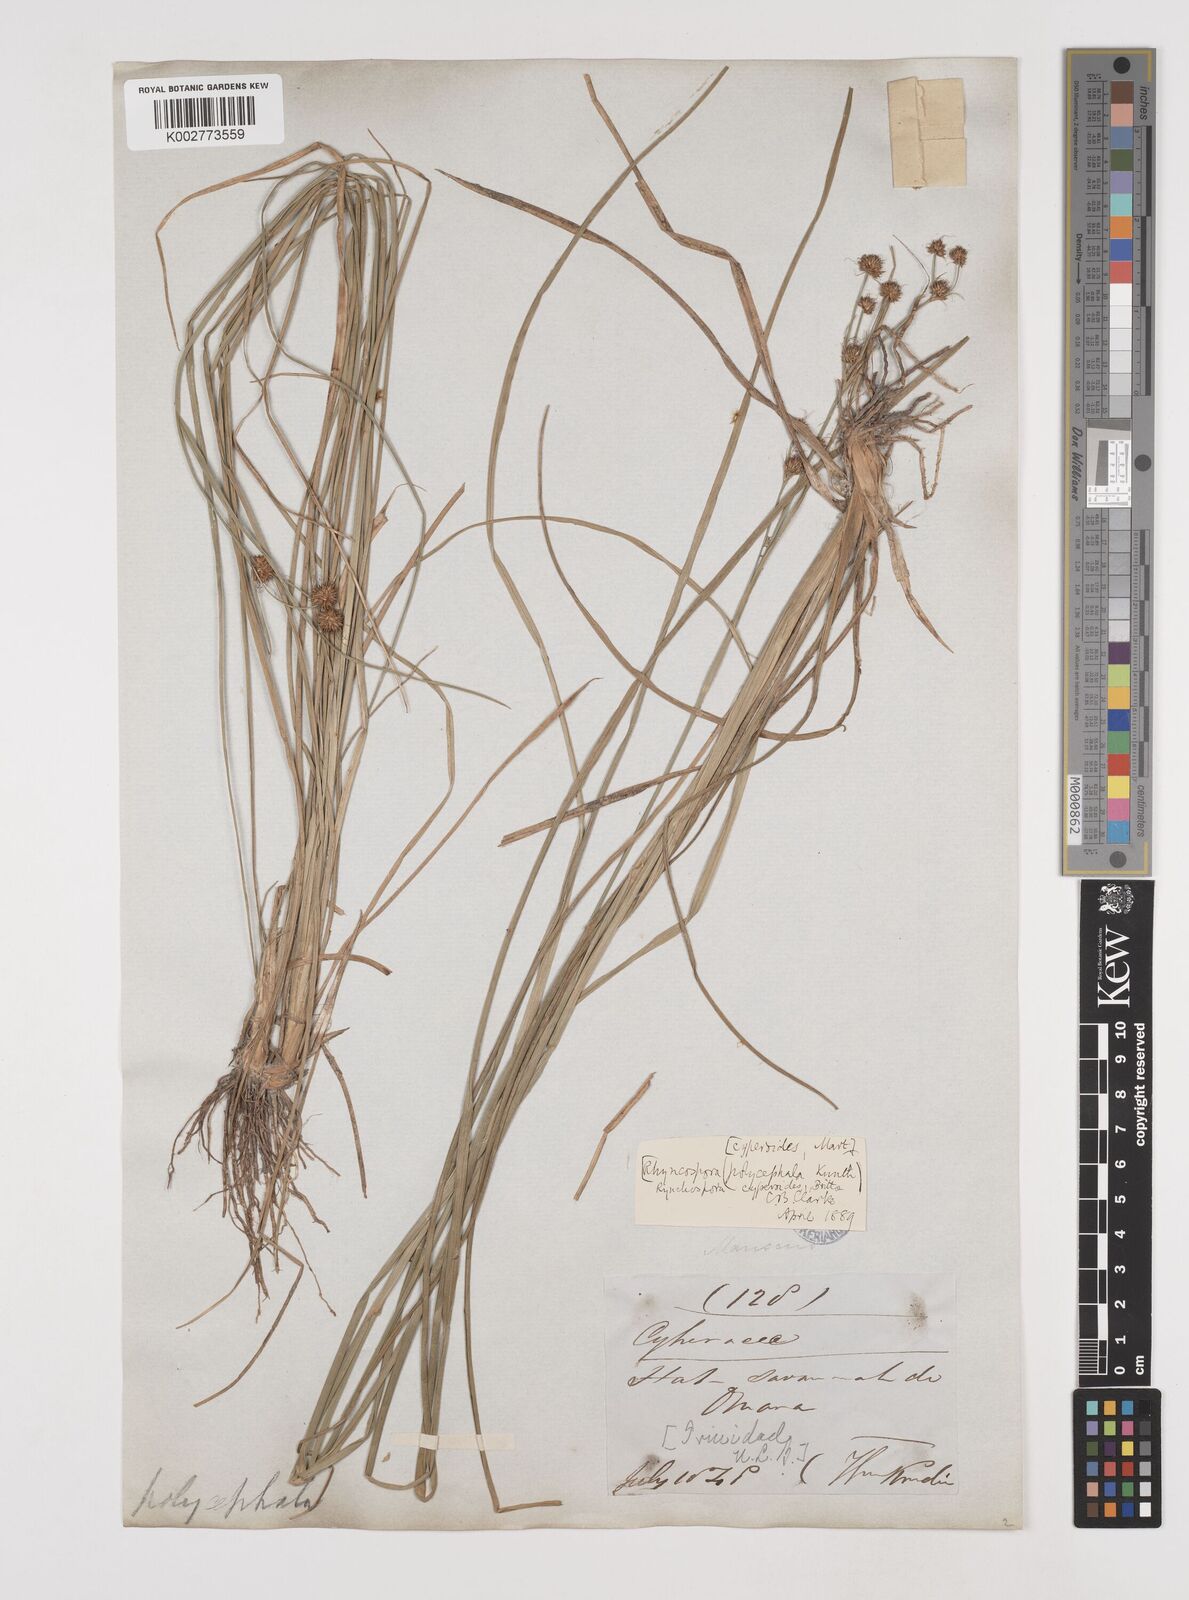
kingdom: Plantae
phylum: Tracheophyta
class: Liliopsida
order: Poales
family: Cyperaceae
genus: Rhynchospora
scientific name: Rhynchospora holoschoenoides
